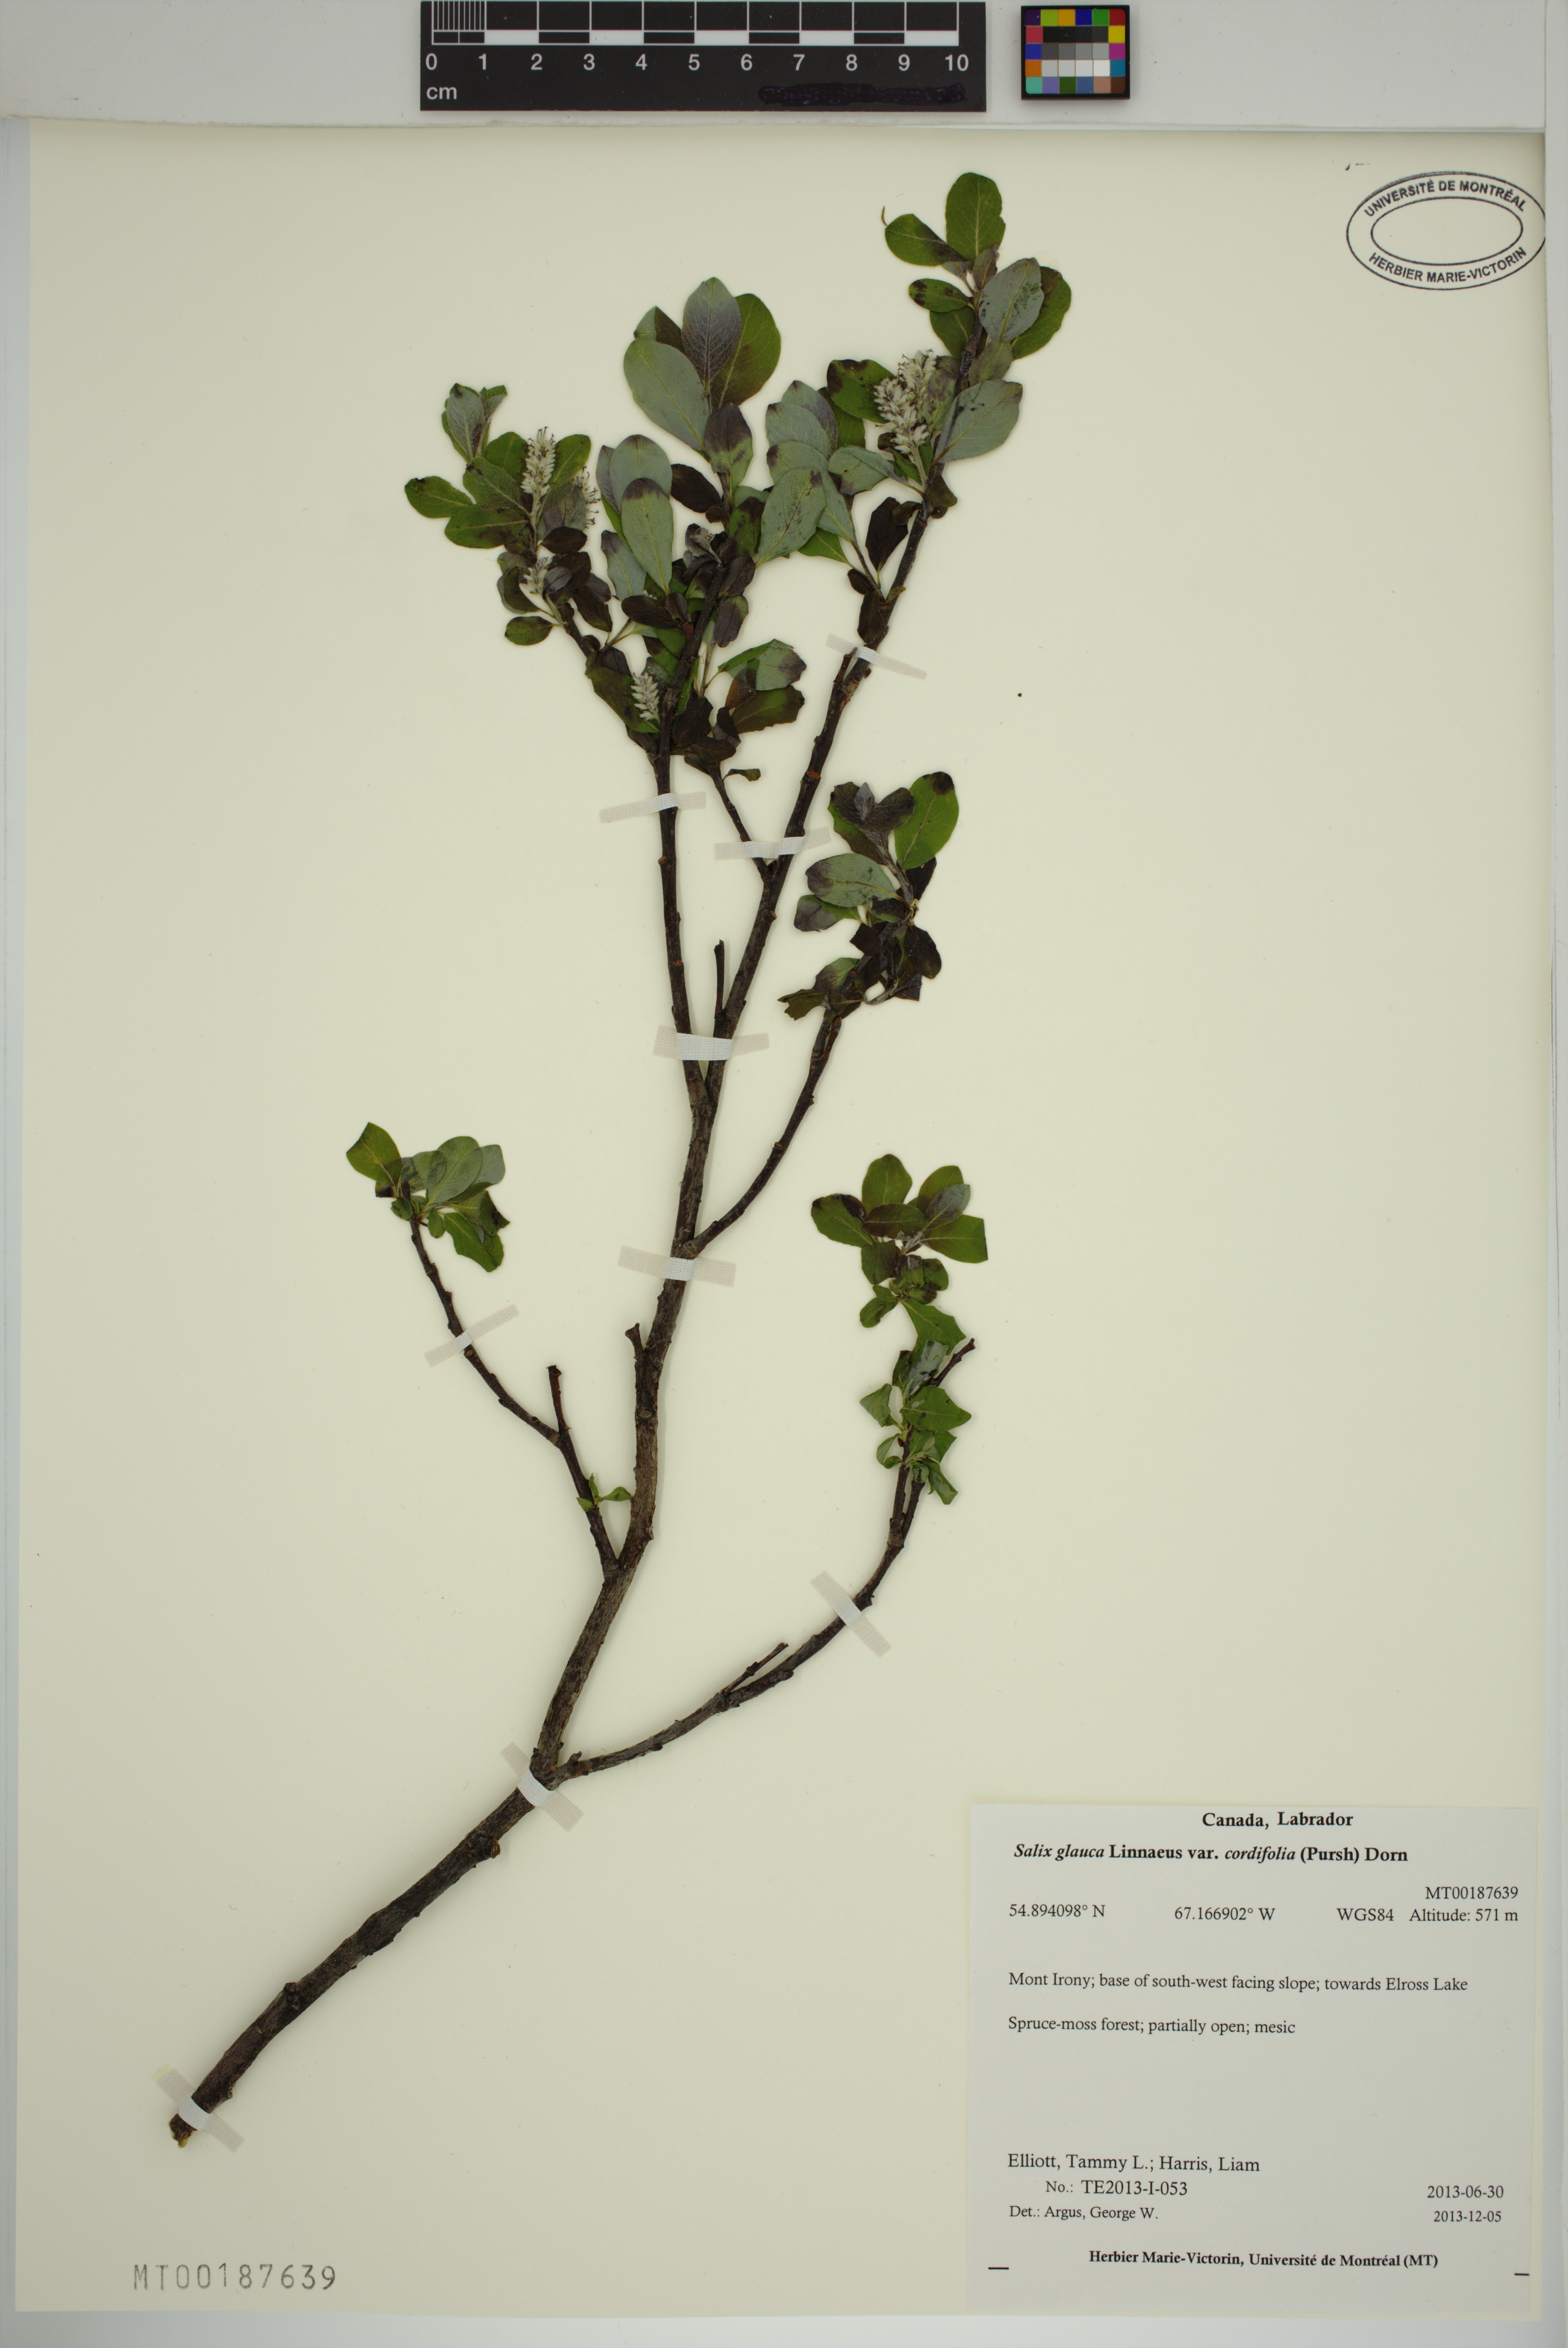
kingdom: Plantae
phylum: Tracheophyta
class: Magnoliopsida
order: Malpighiales
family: Salicaceae
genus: Salix
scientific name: Salix glauca
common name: Glaucous willow
